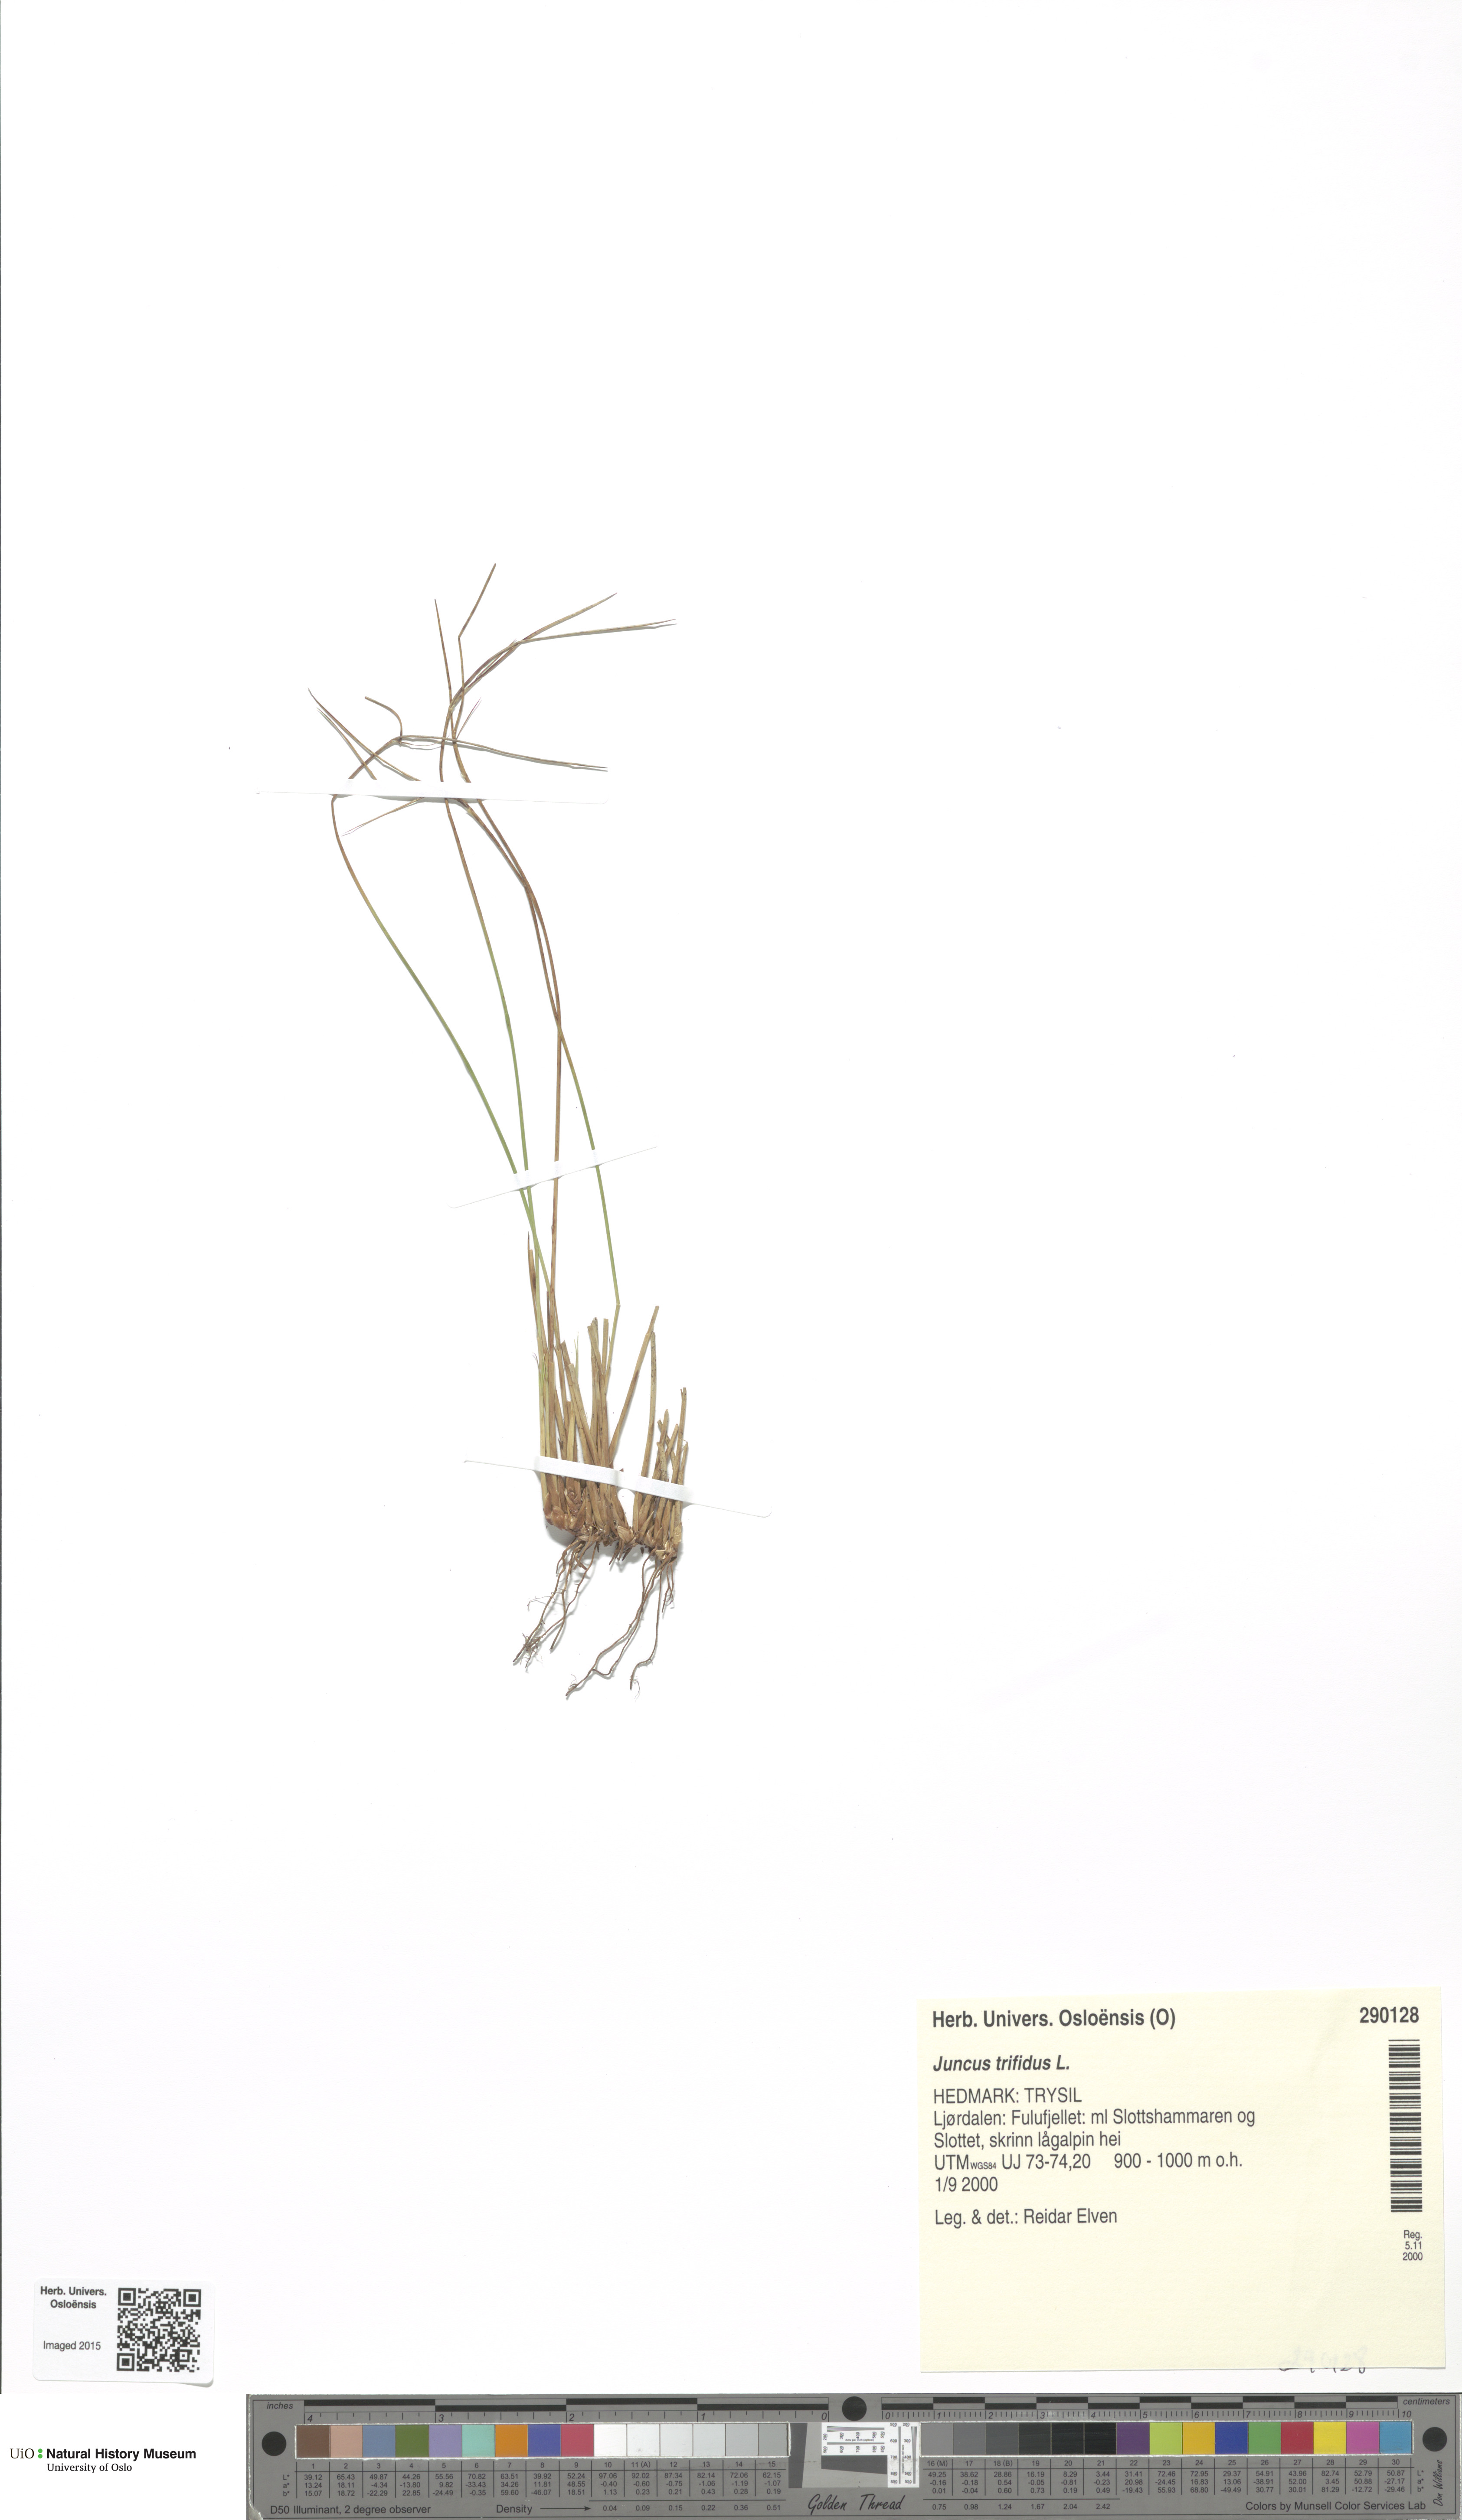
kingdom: Plantae
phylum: Tracheophyta
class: Liliopsida
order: Poales
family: Juncaceae
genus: Oreojuncus
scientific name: Oreojuncus trifidus
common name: Highland rush
